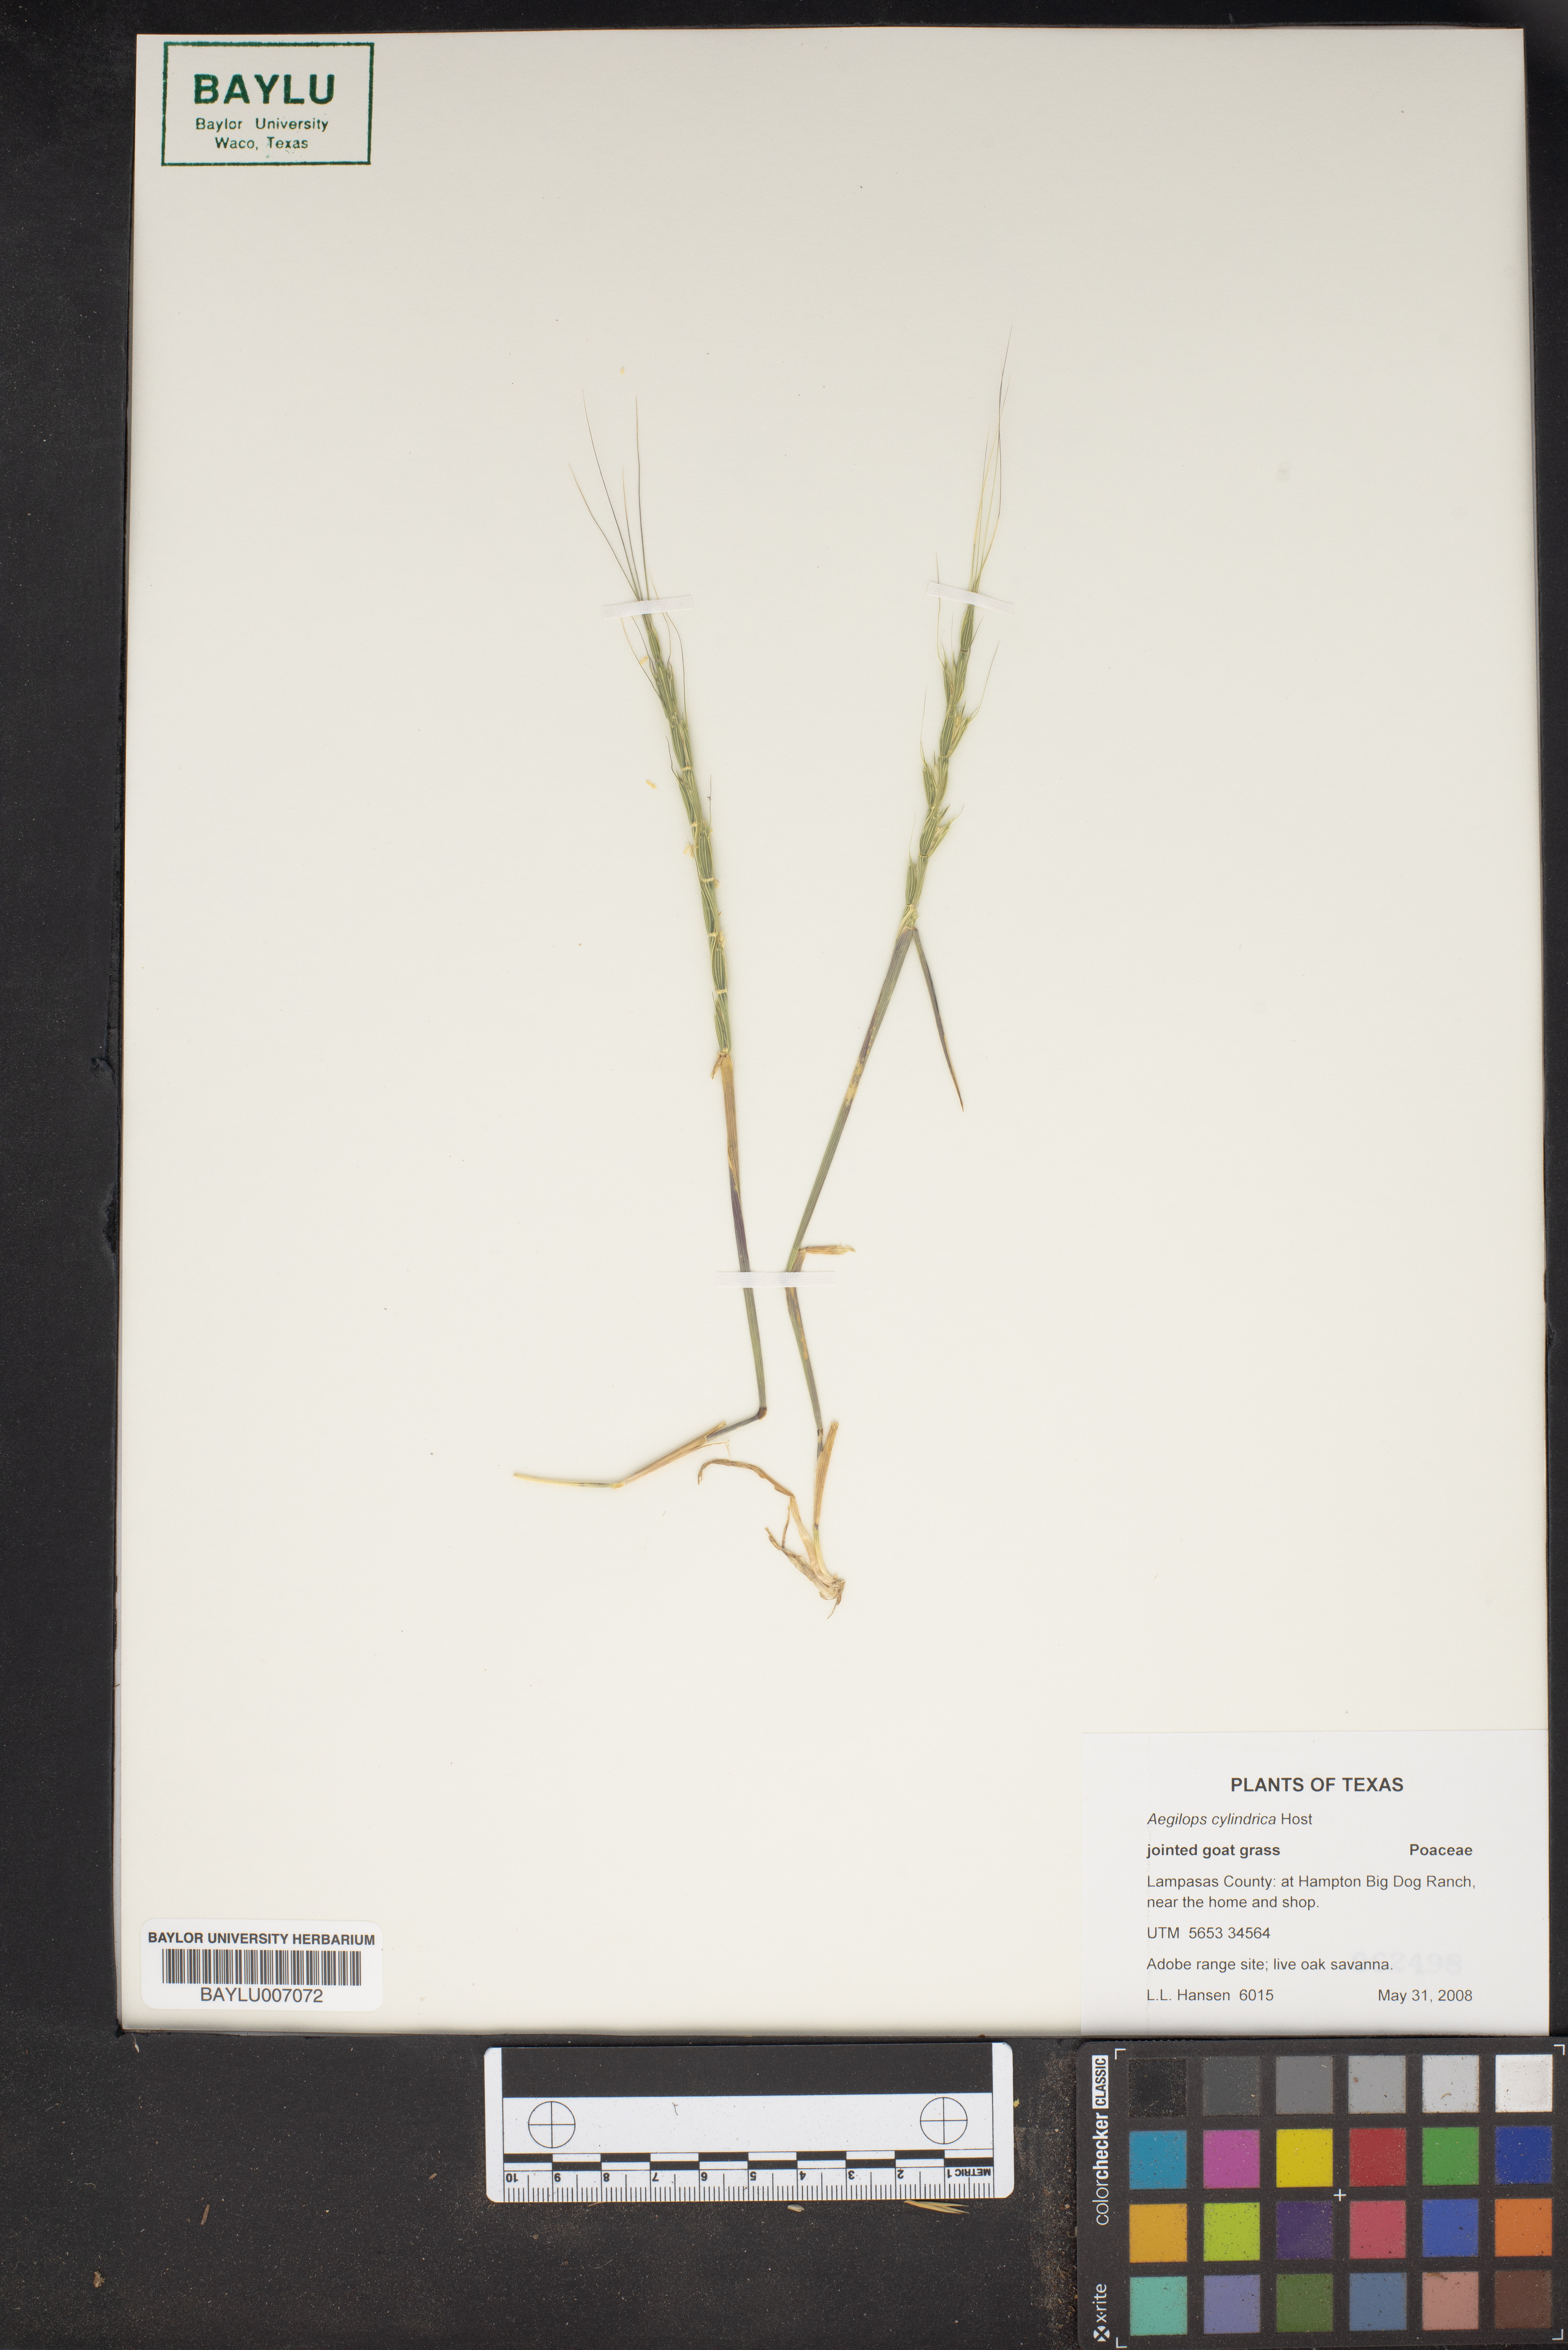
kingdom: Plantae
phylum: Tracheophyta
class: Liliopsida
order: Poales
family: Poaceae
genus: Aegilops
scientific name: Aegilops cylindrica
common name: Jointed goatgrass
